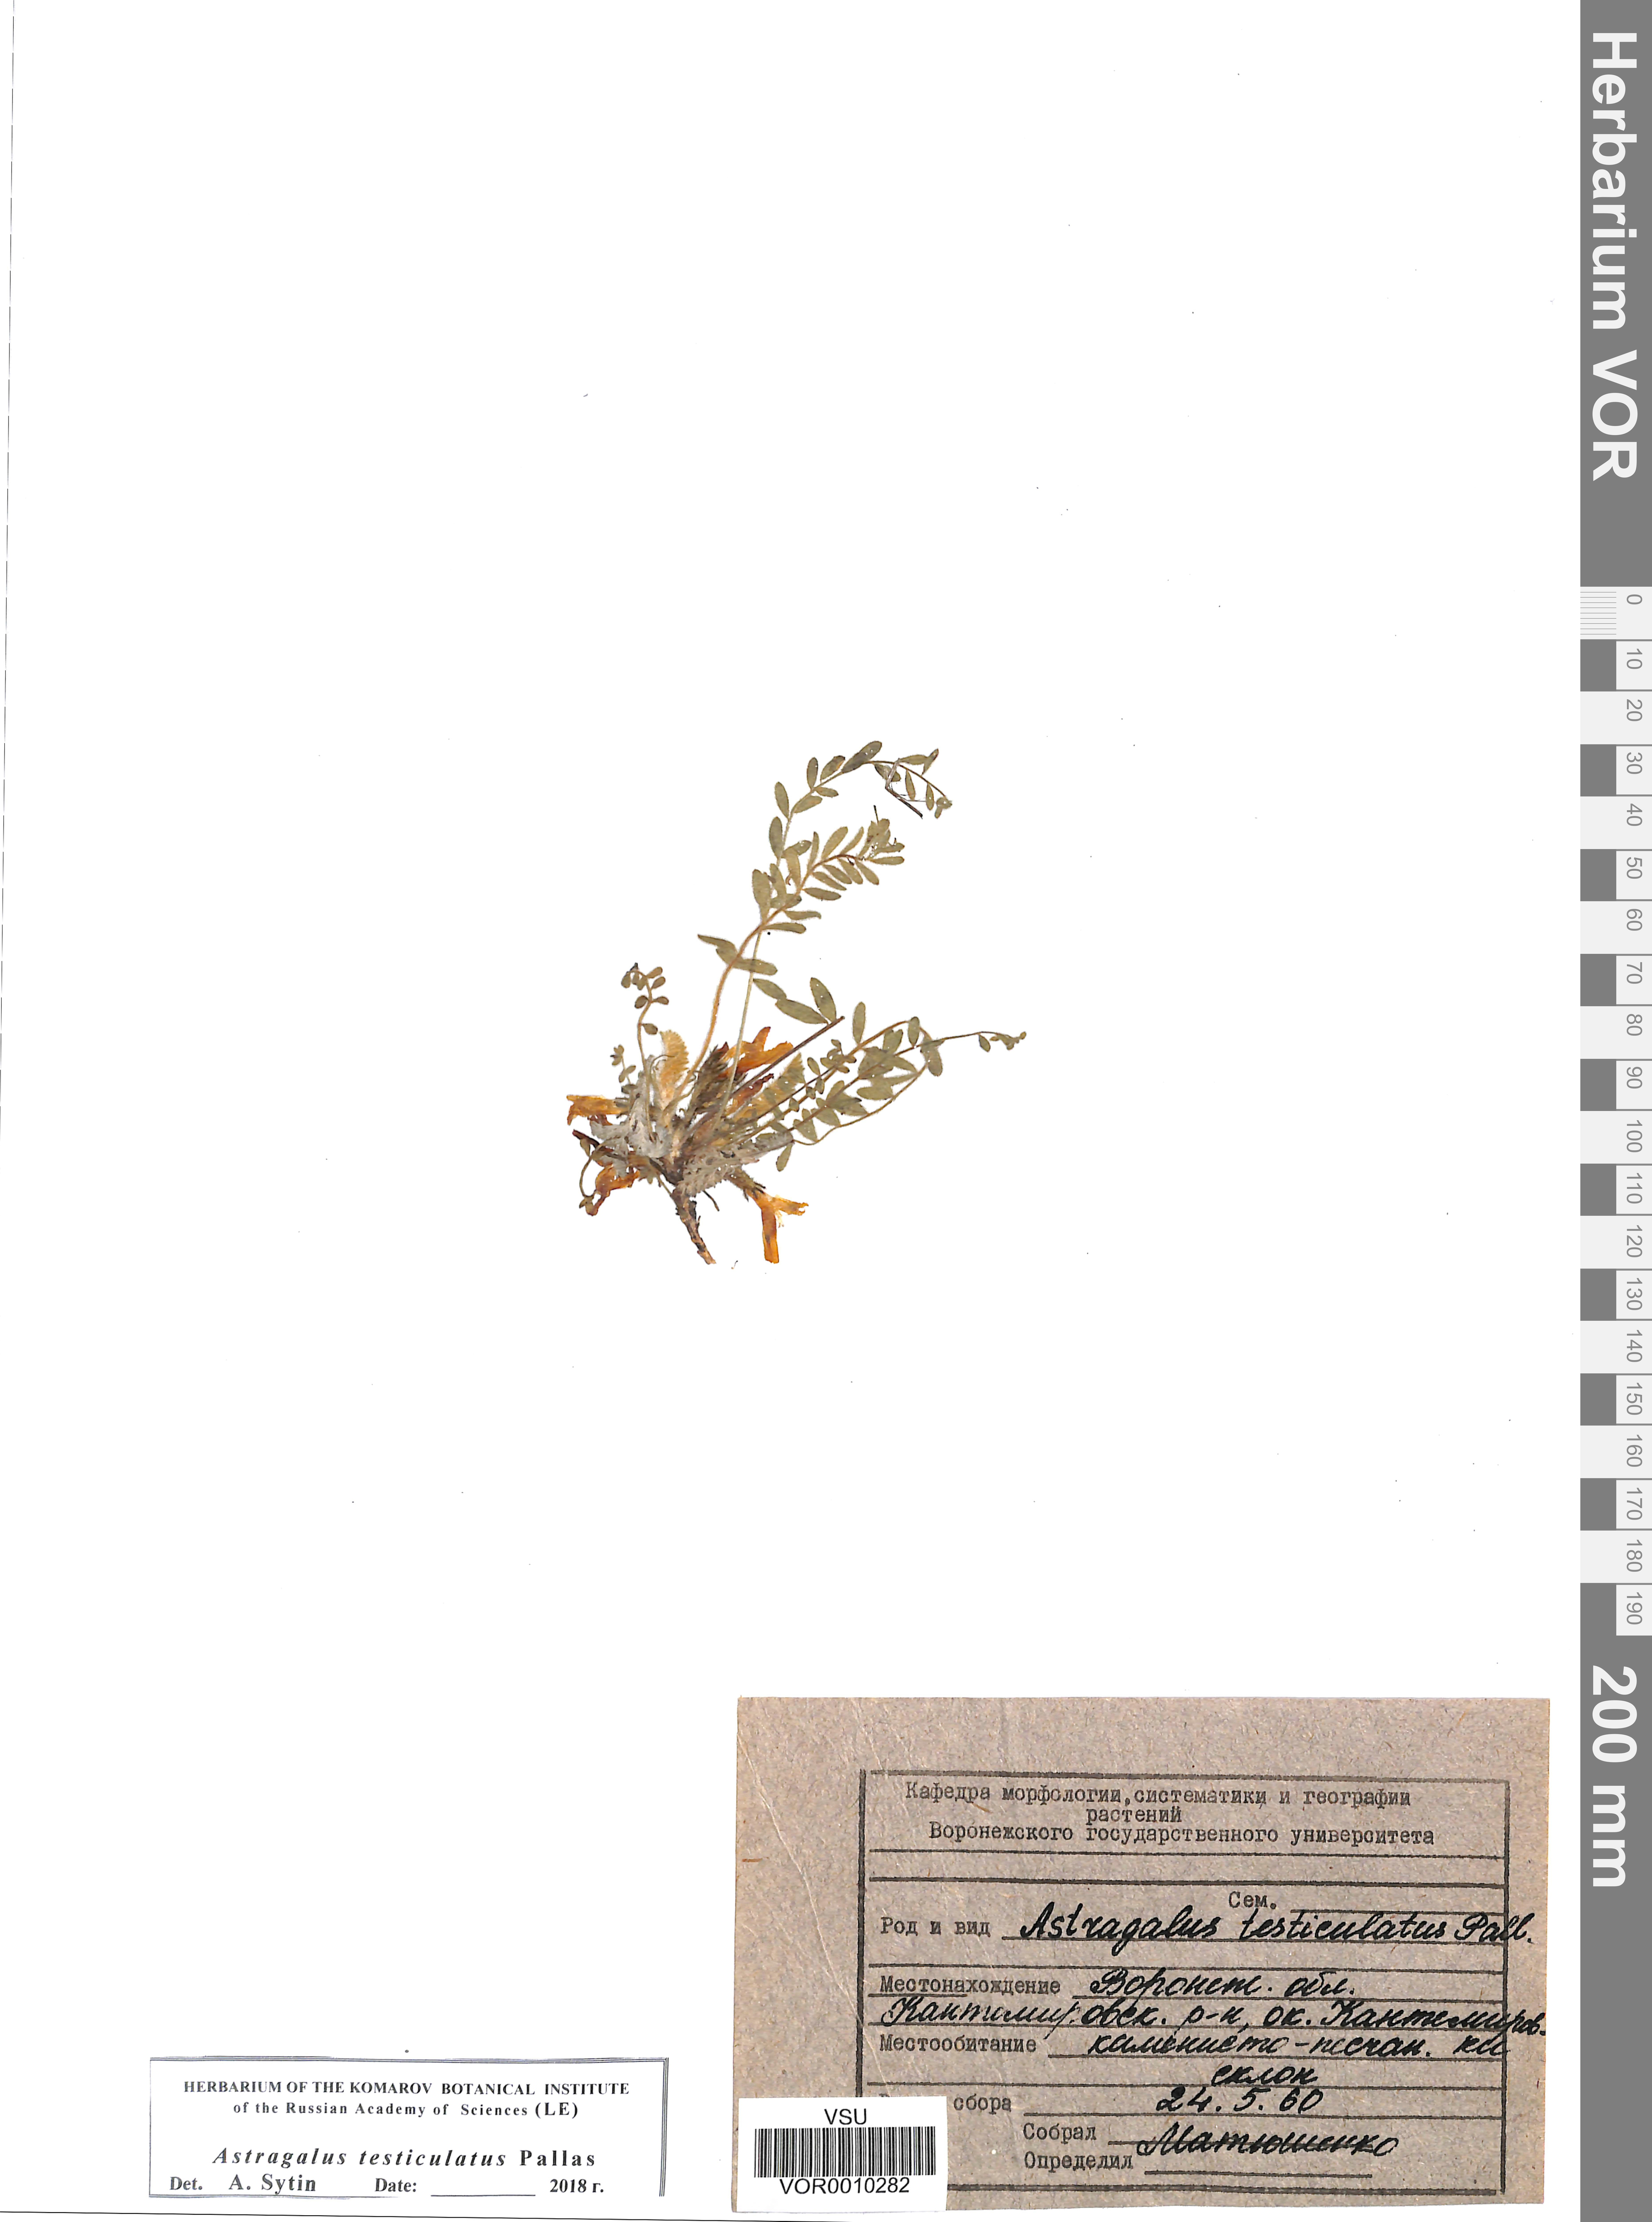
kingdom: Plantae
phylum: Tracheophyta
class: Magnoliopsida
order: Fabales
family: Fabaceae
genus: Astragalus
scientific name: Astragalus testiculatus
